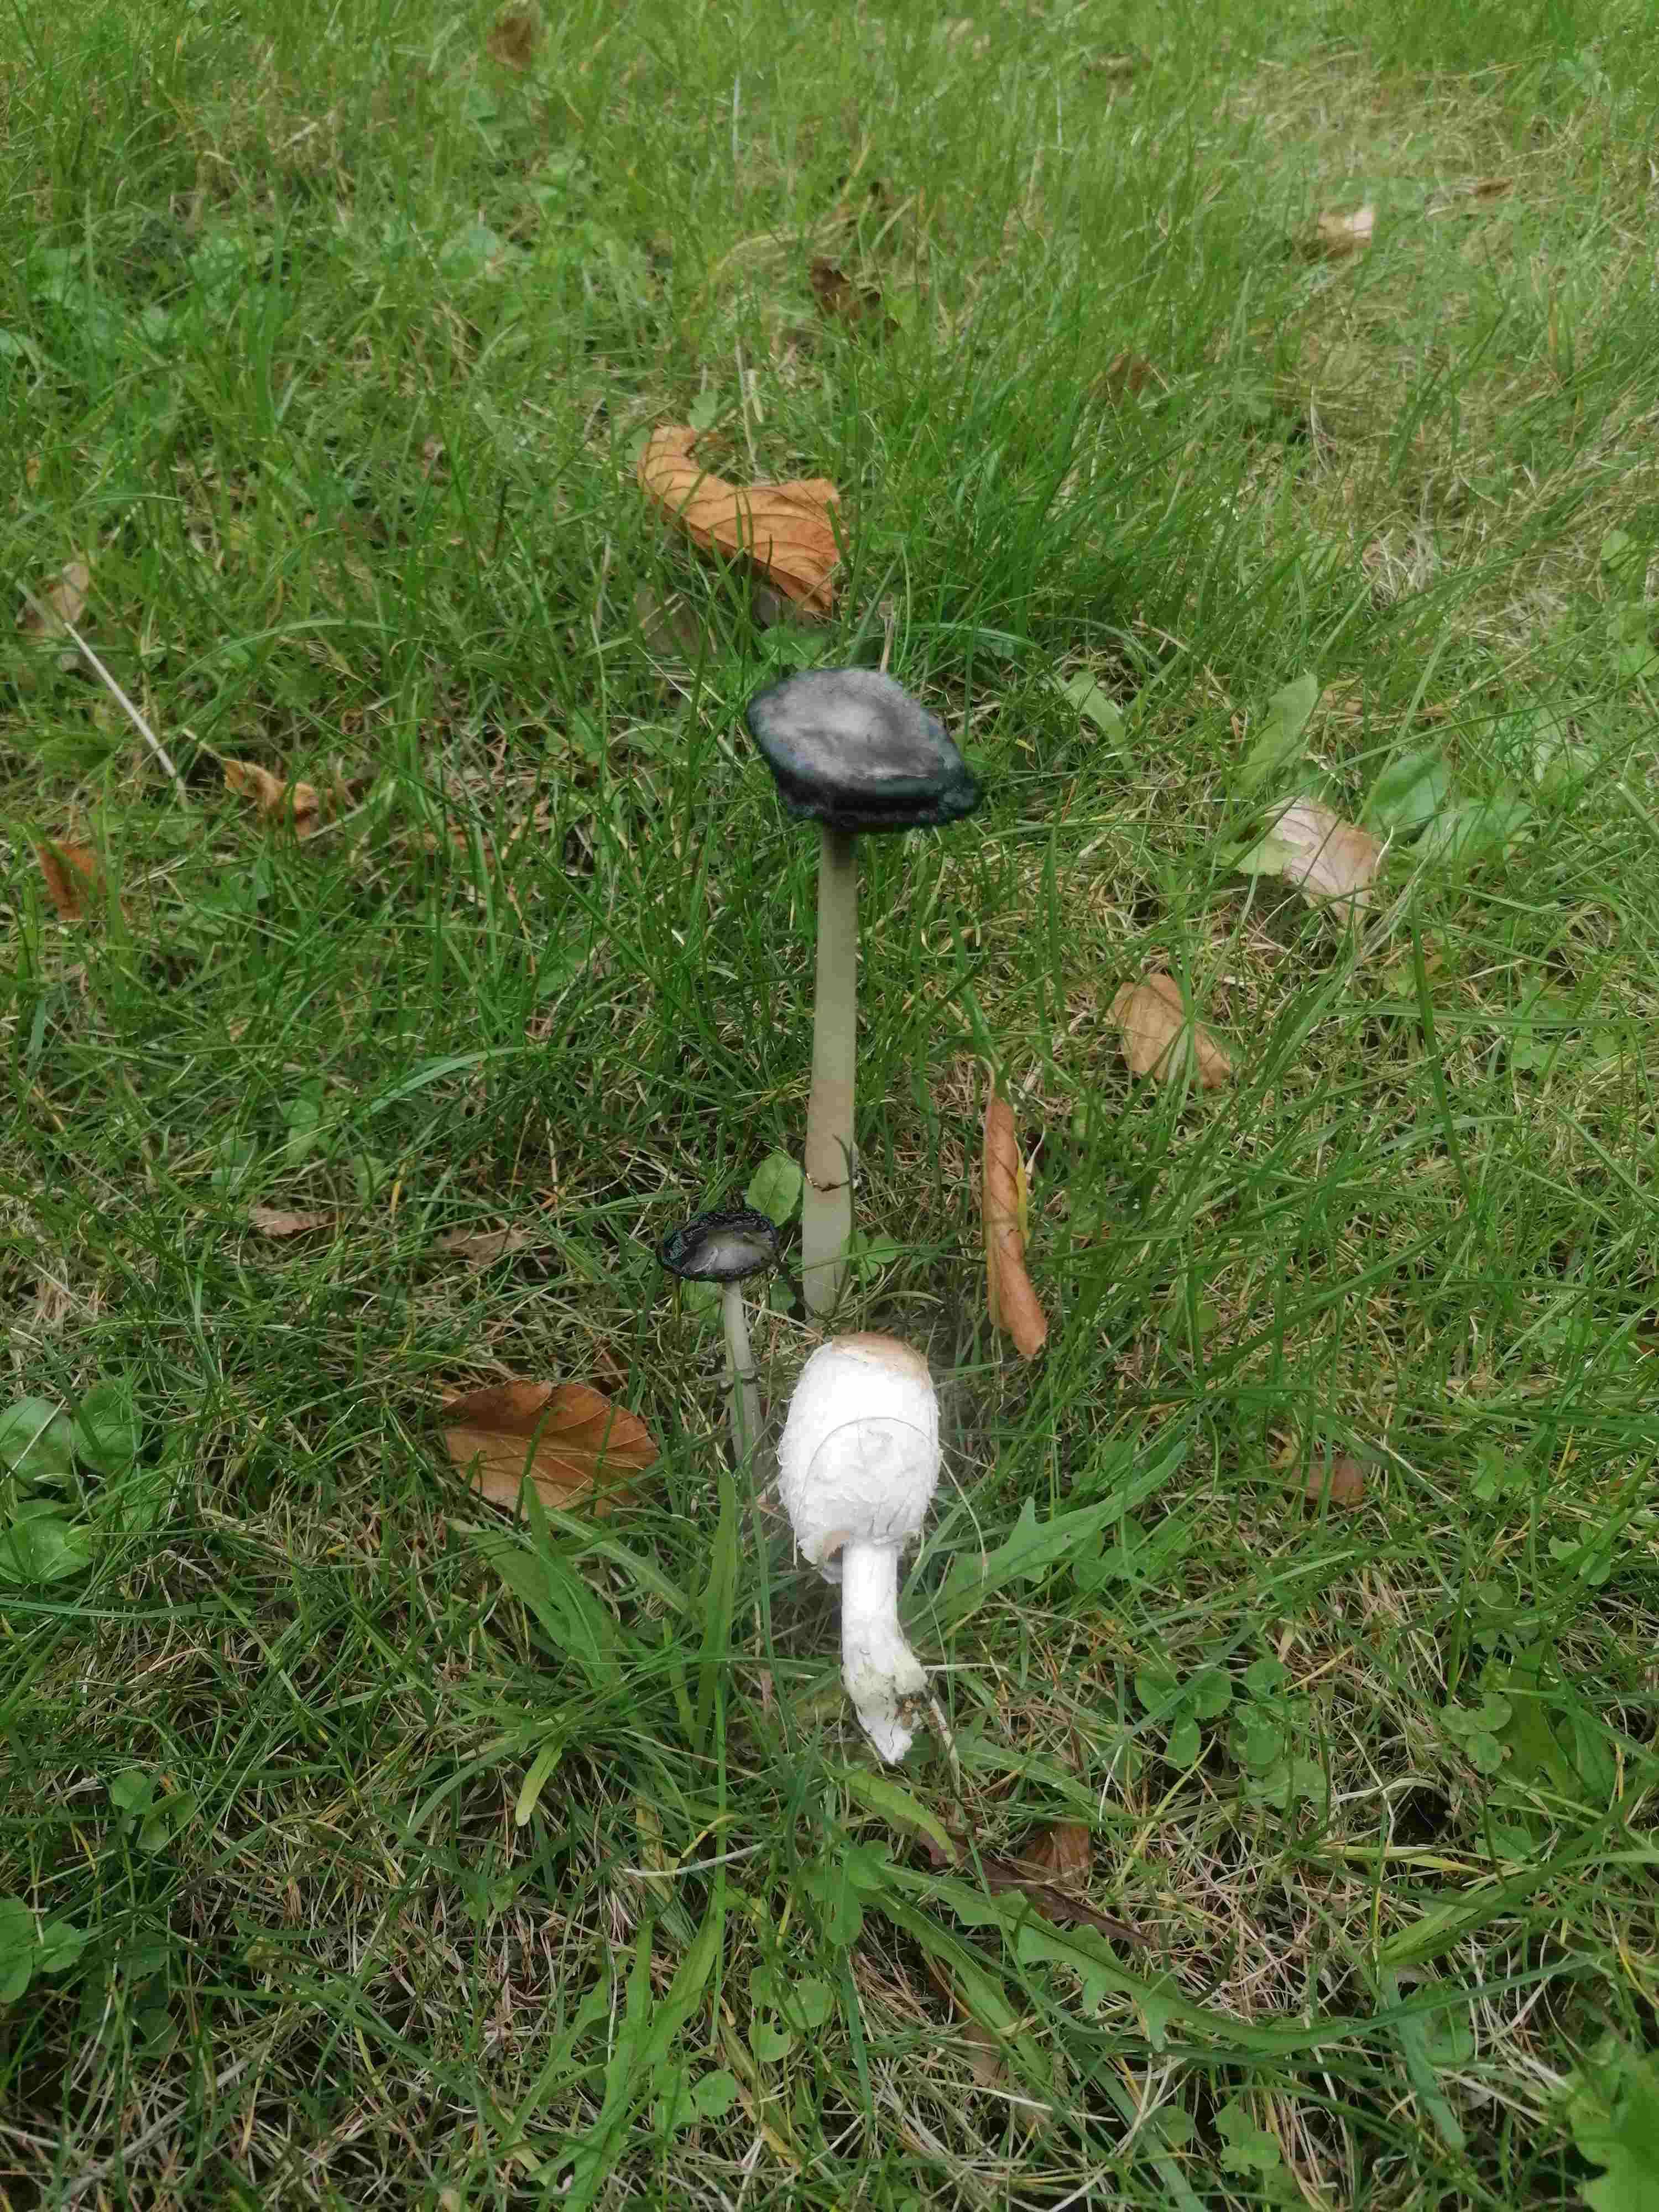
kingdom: Fungi
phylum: Basidiomycota
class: Agaricomycetes
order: Agaricales
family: Agaricaceae
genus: Coprinus
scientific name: Coprinus comatus
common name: stor parykhat
